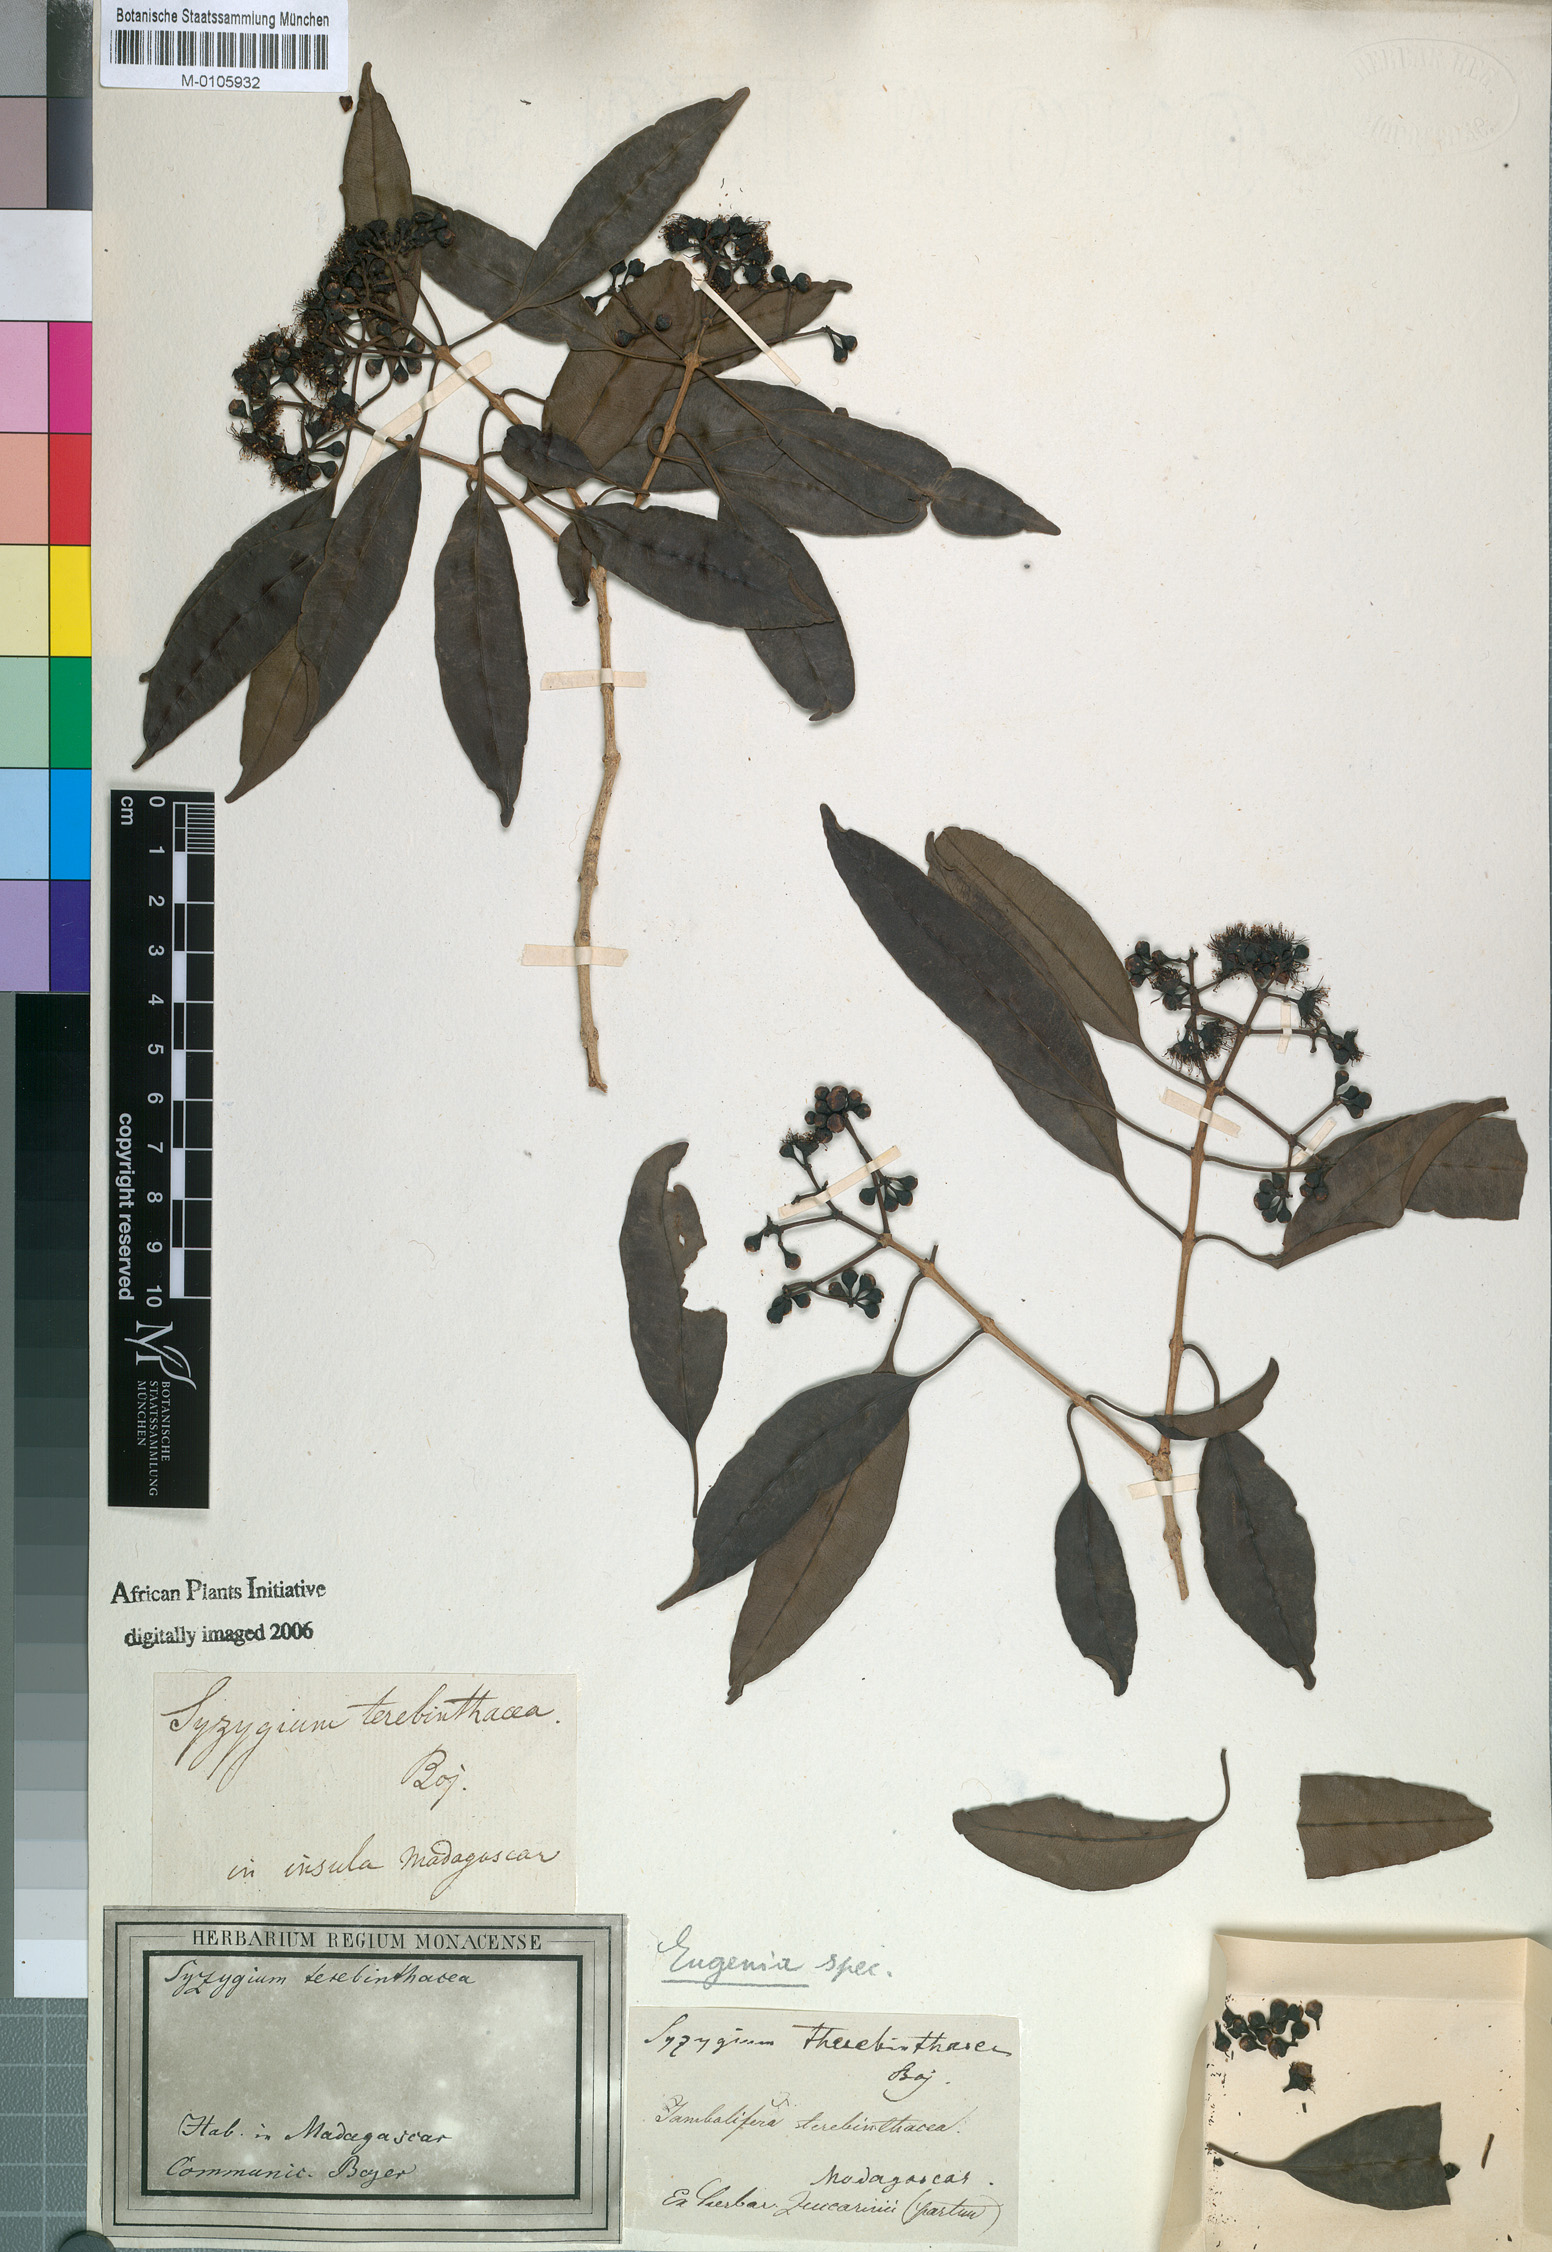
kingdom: Plantae
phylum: Tracheophyta
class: Magnoliopsida
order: Myrtales
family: Myrtaceae
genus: Syzygium
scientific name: Syzygium sakalavarum
